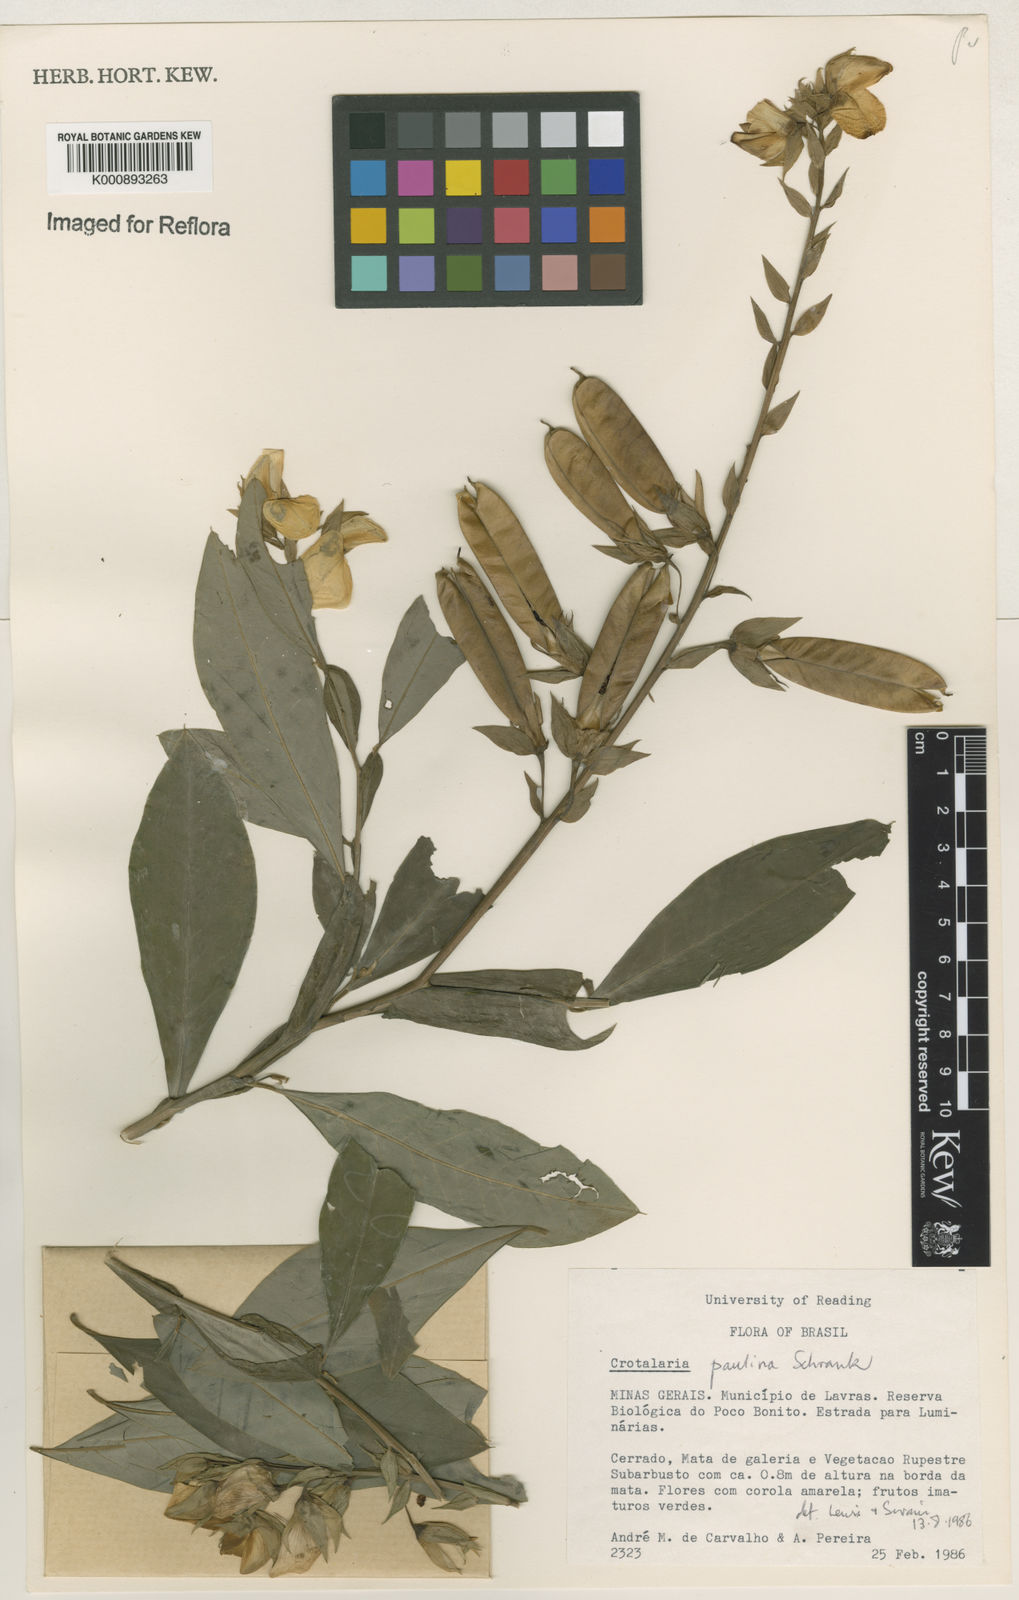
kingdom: Plantae
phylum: Tracheophyta
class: Magnoliopsida
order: Fabales
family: Fabaceae
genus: Crotalaria
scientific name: Crotalaria paulina
